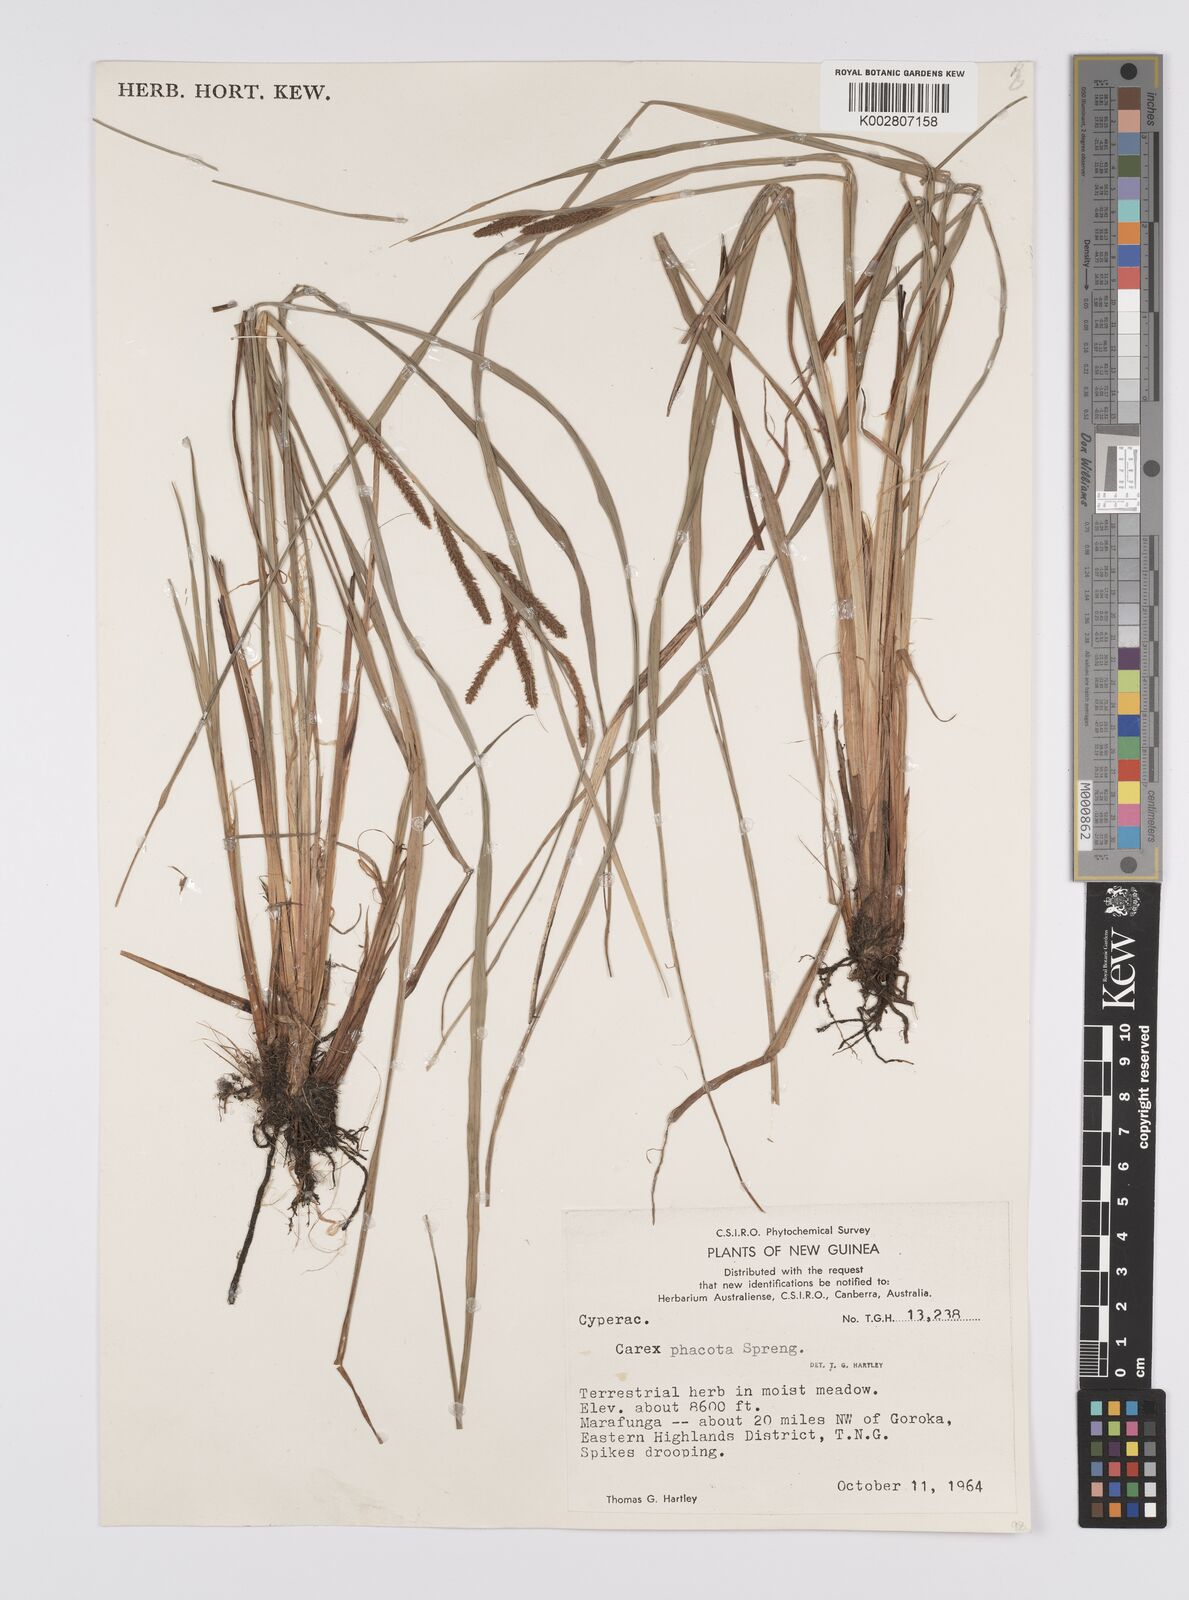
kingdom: Plantae
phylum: Tracheophyta
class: Liliopsida
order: Poales
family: Cyperaceae
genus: Carex
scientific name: Carex phacota
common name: Lakeshore sedge
